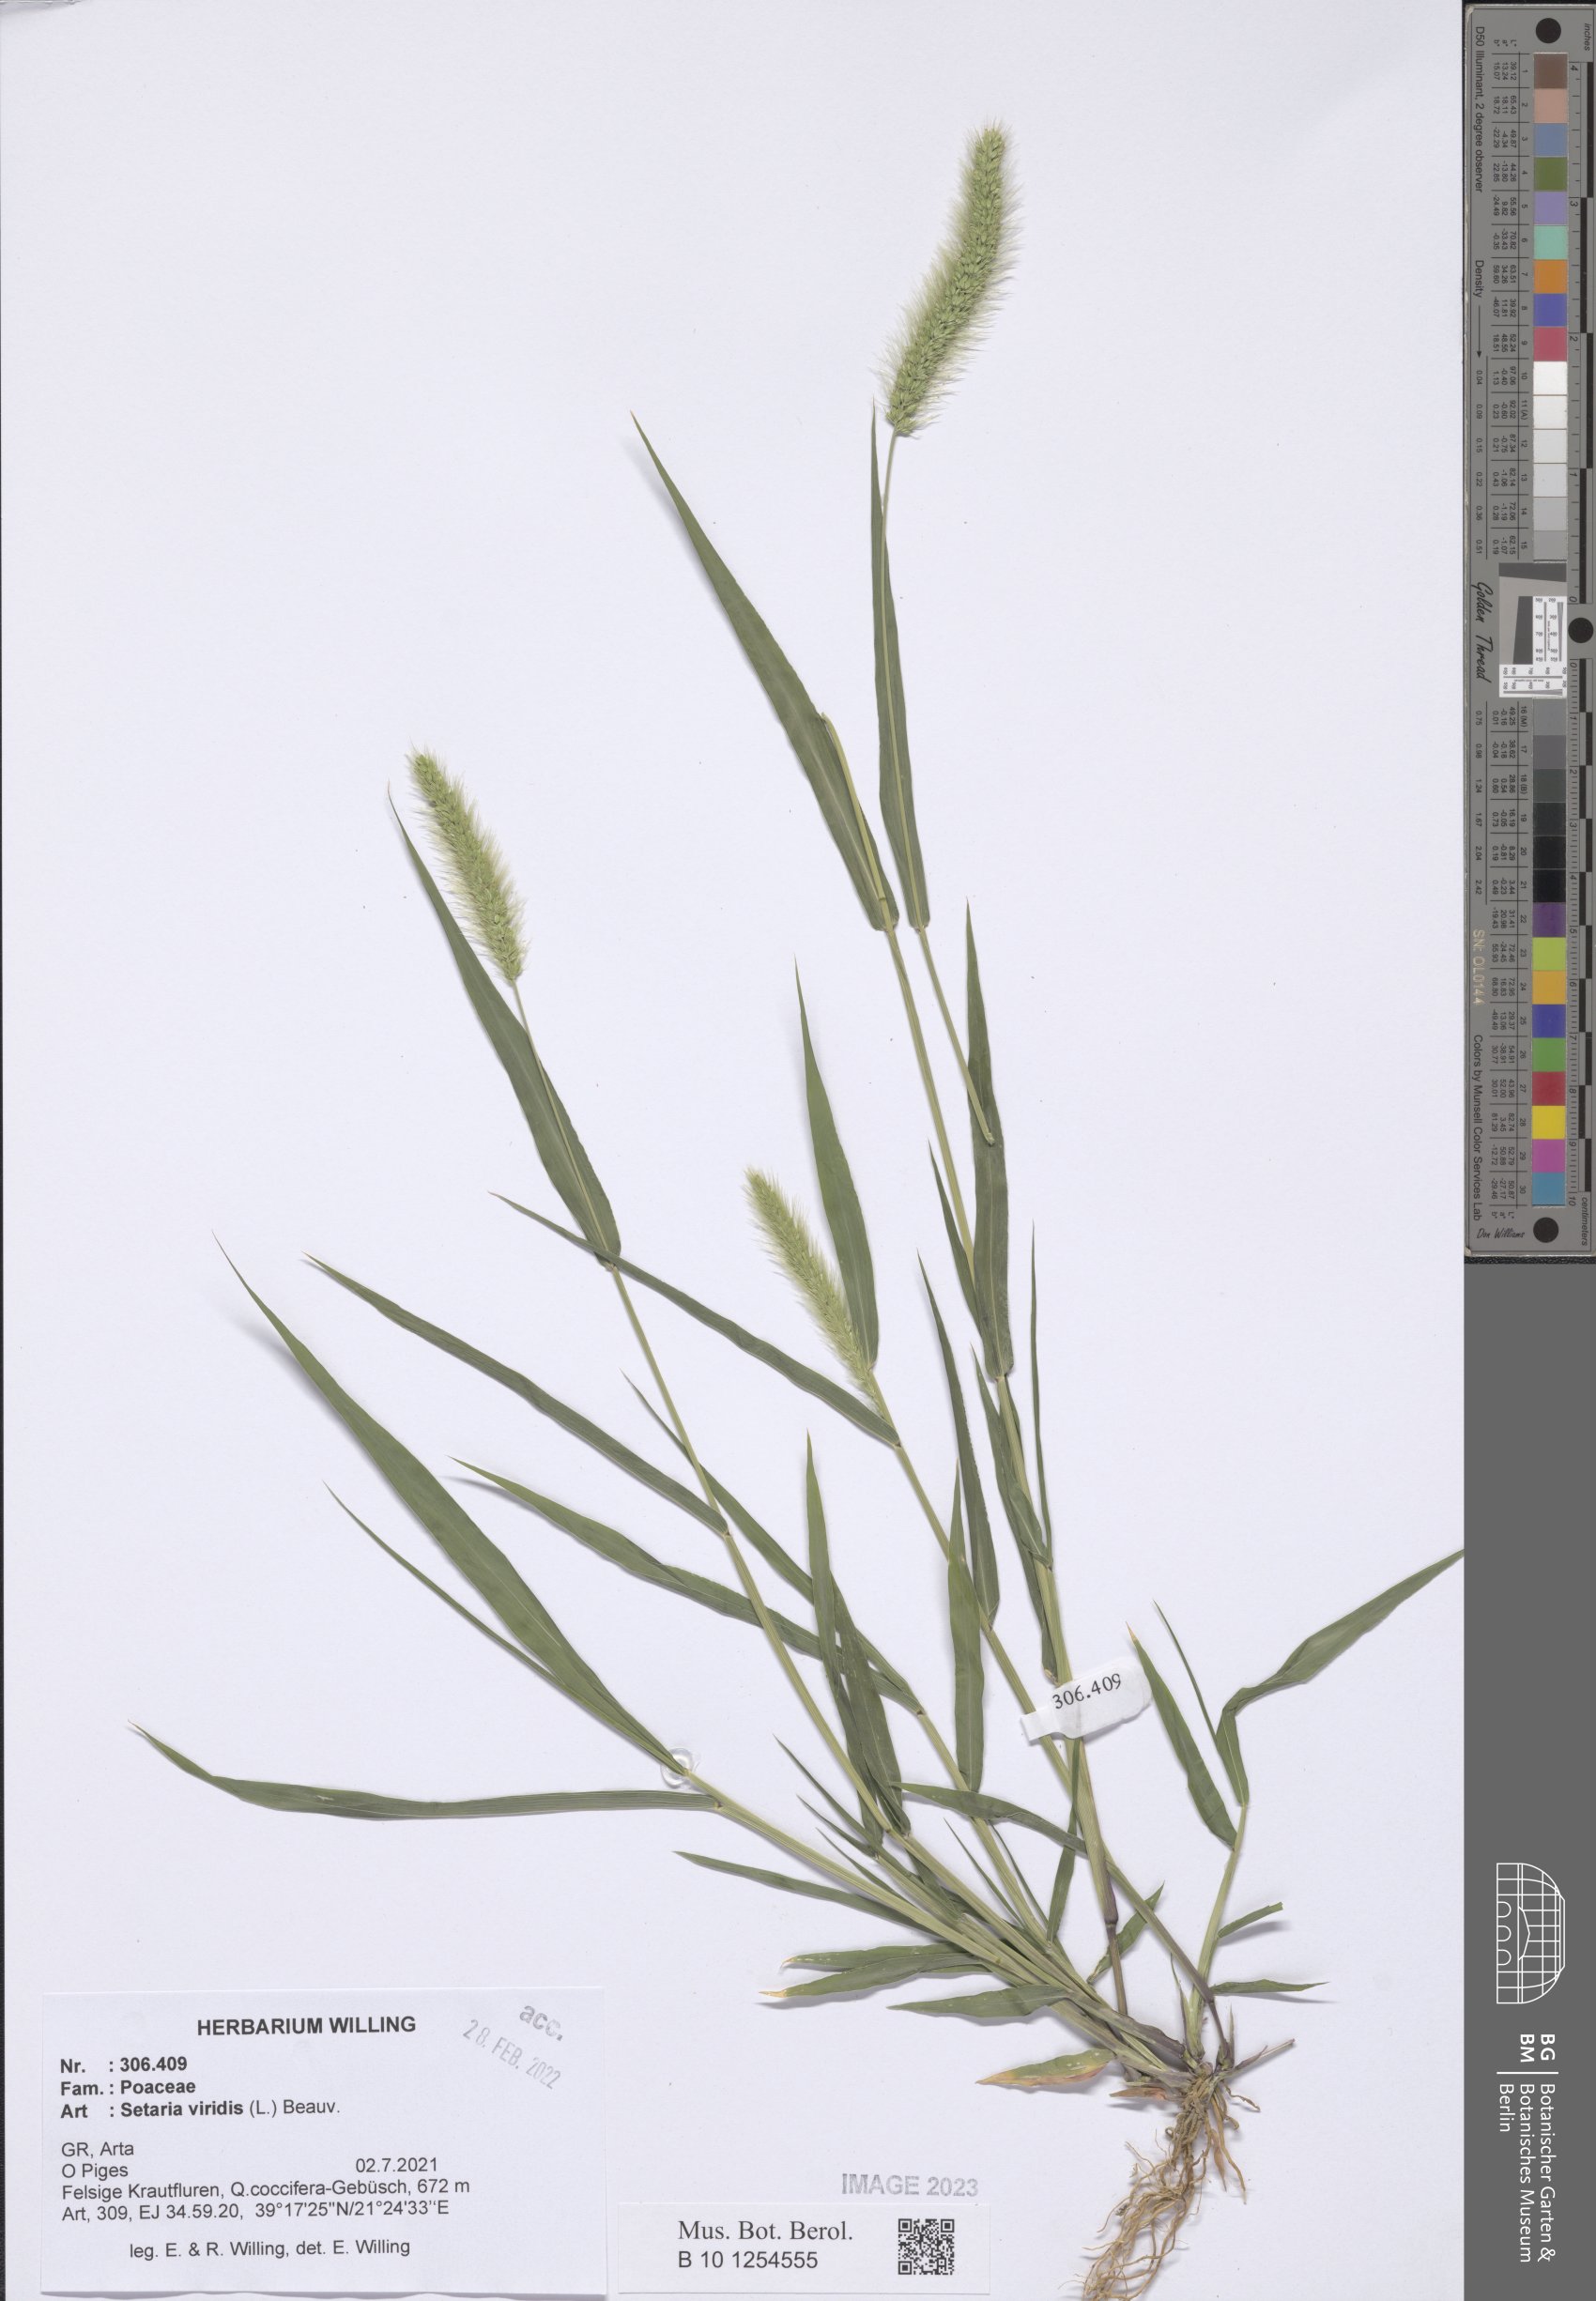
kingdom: Plantae
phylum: Tracheophyta
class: Liliopsida
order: Poales
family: Poaceae
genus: Setaria
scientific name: Setaria viridis
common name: Green bristlegrass
